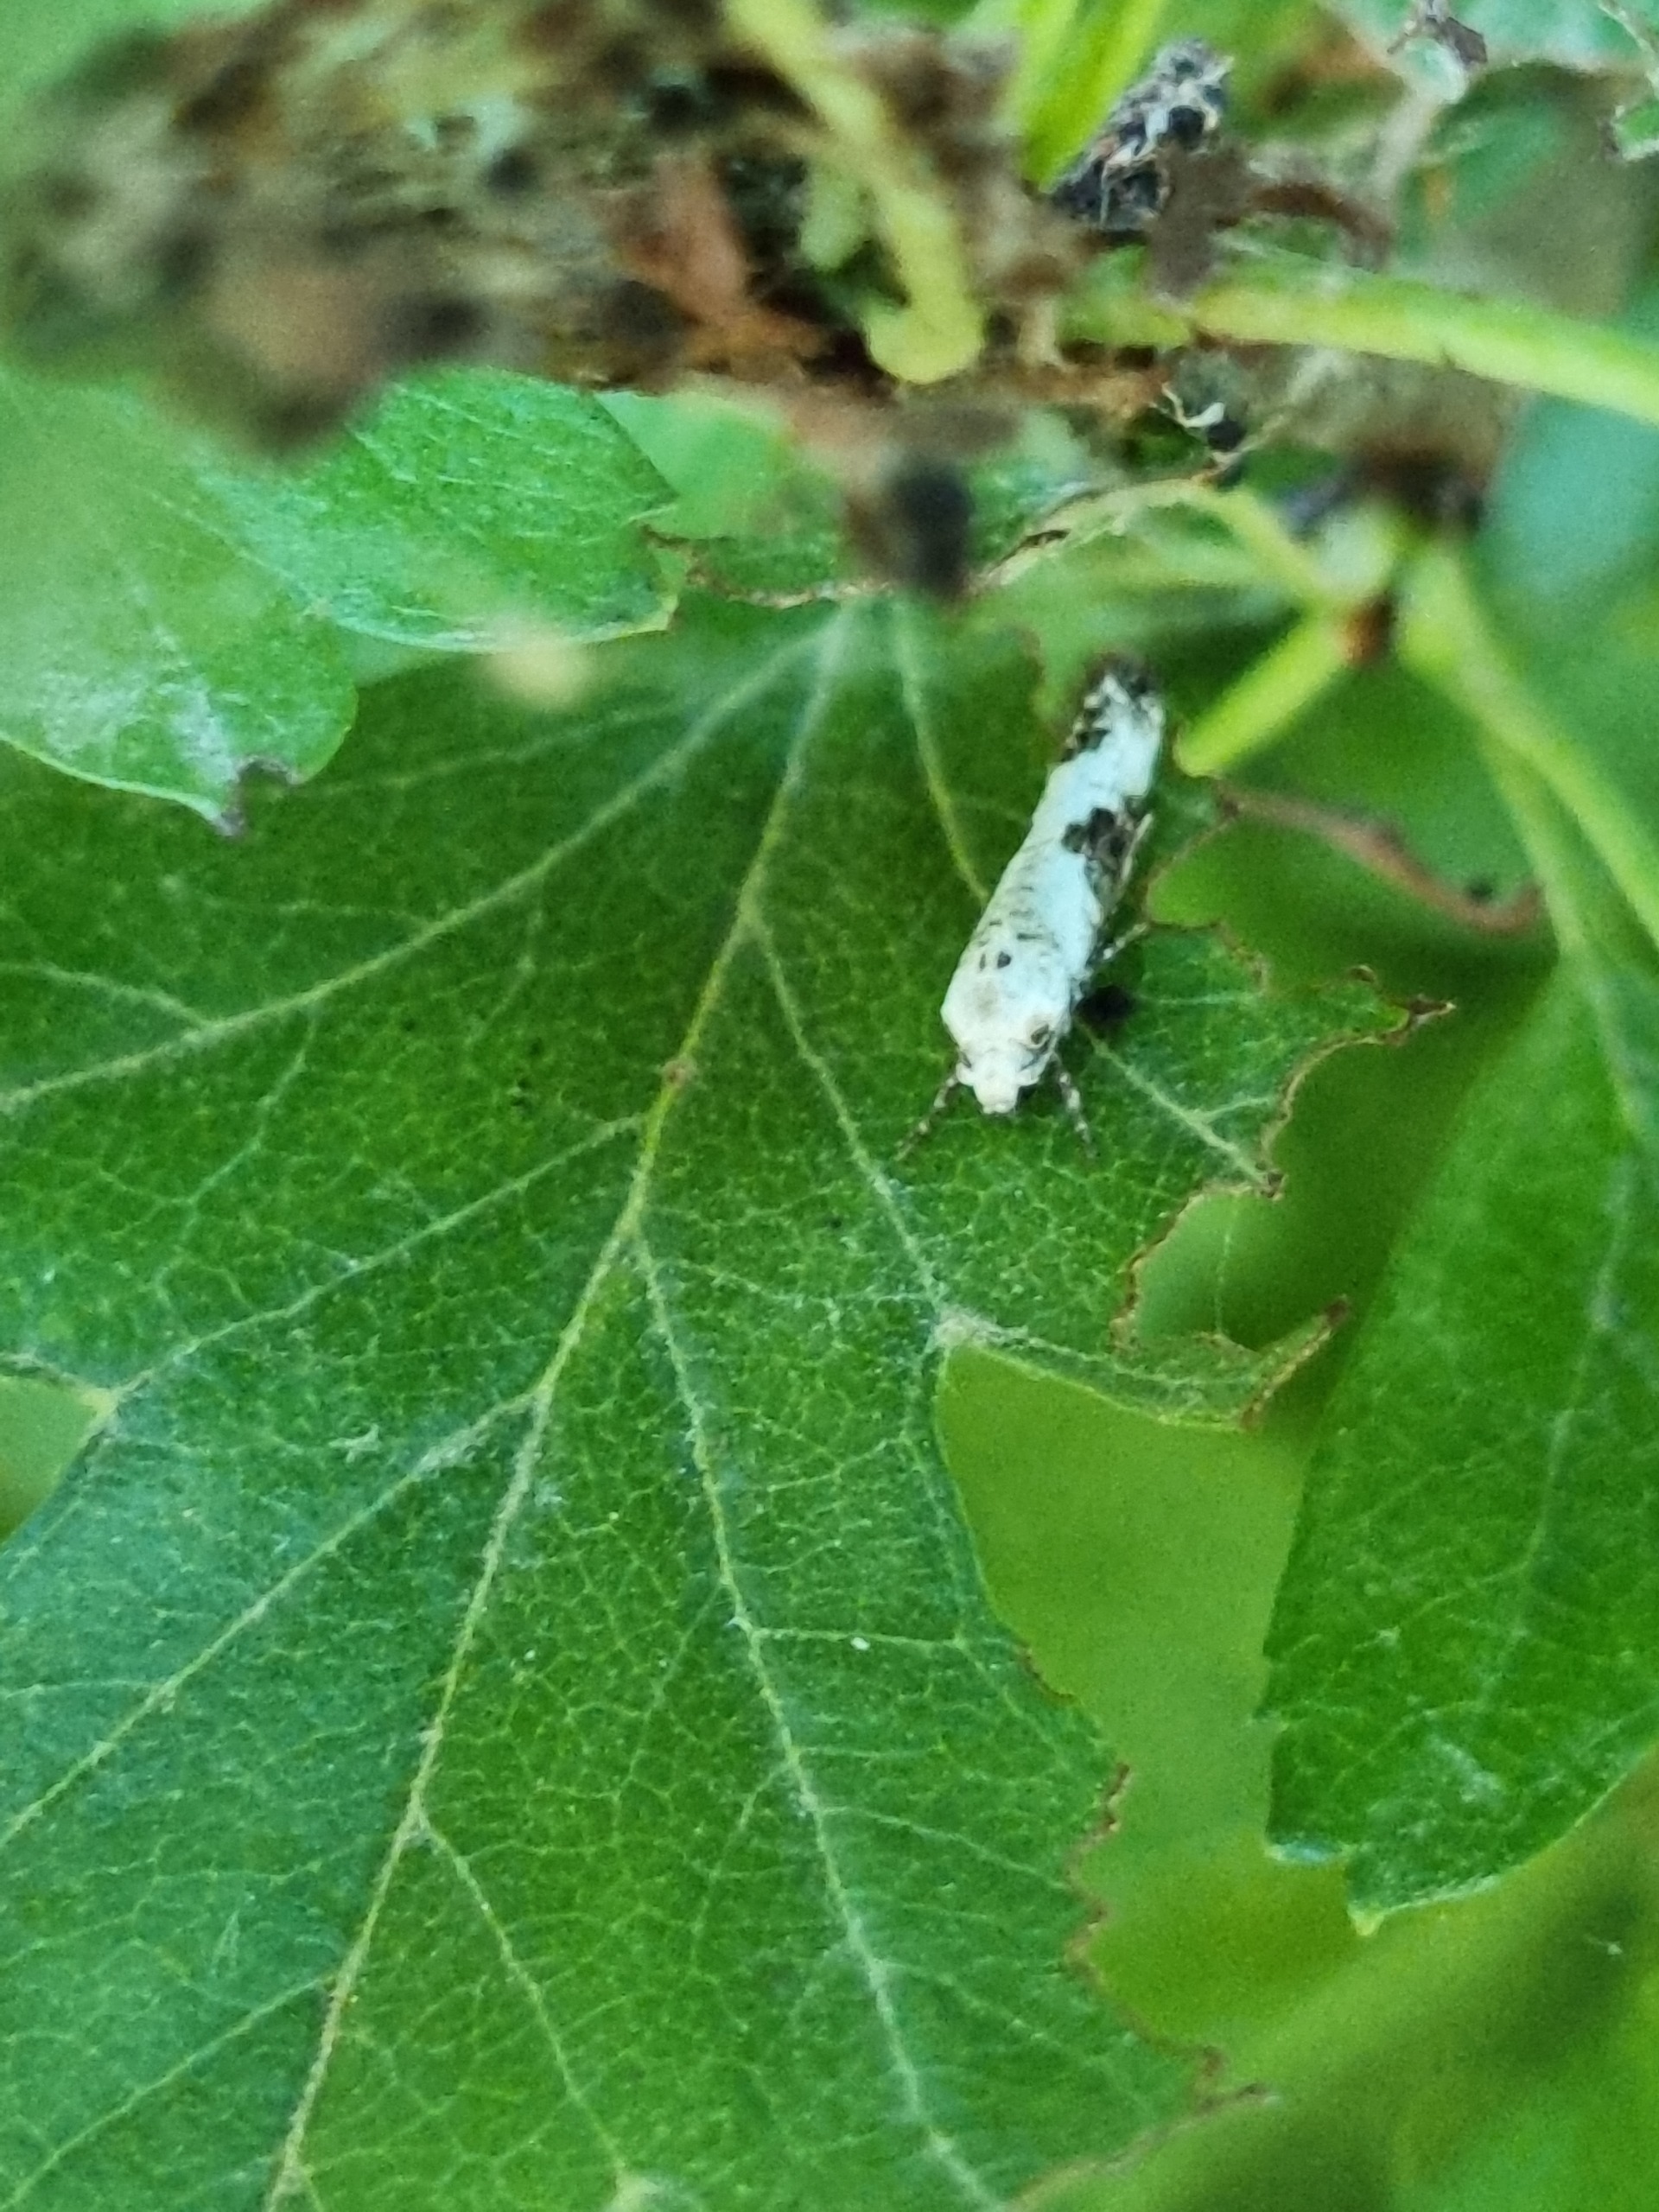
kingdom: Animalia
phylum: Arthropoda
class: Insecta
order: Lepidoptera
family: Praydidae
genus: Prays
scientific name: Prays fraxinella
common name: Askemøl
